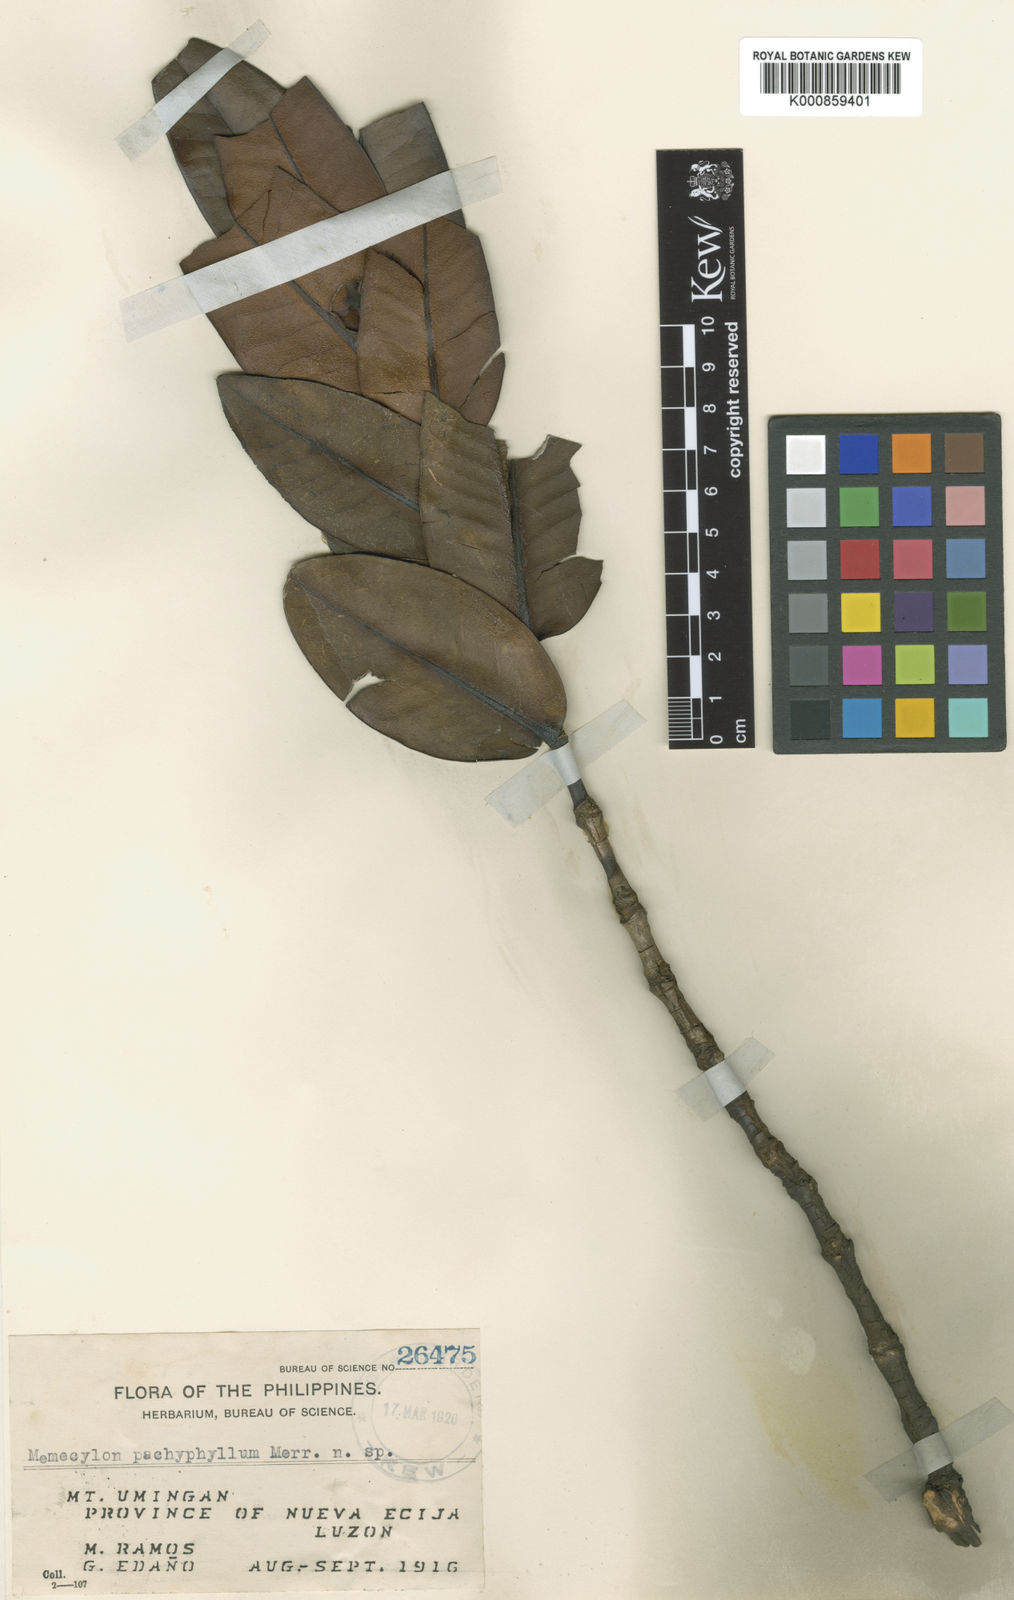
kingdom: Plantae
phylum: Tracheophyta
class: Magnoliopsida
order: Myrtales
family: Melastomataceae
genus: Memecylon
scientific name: Memecylon pachyphyllum
